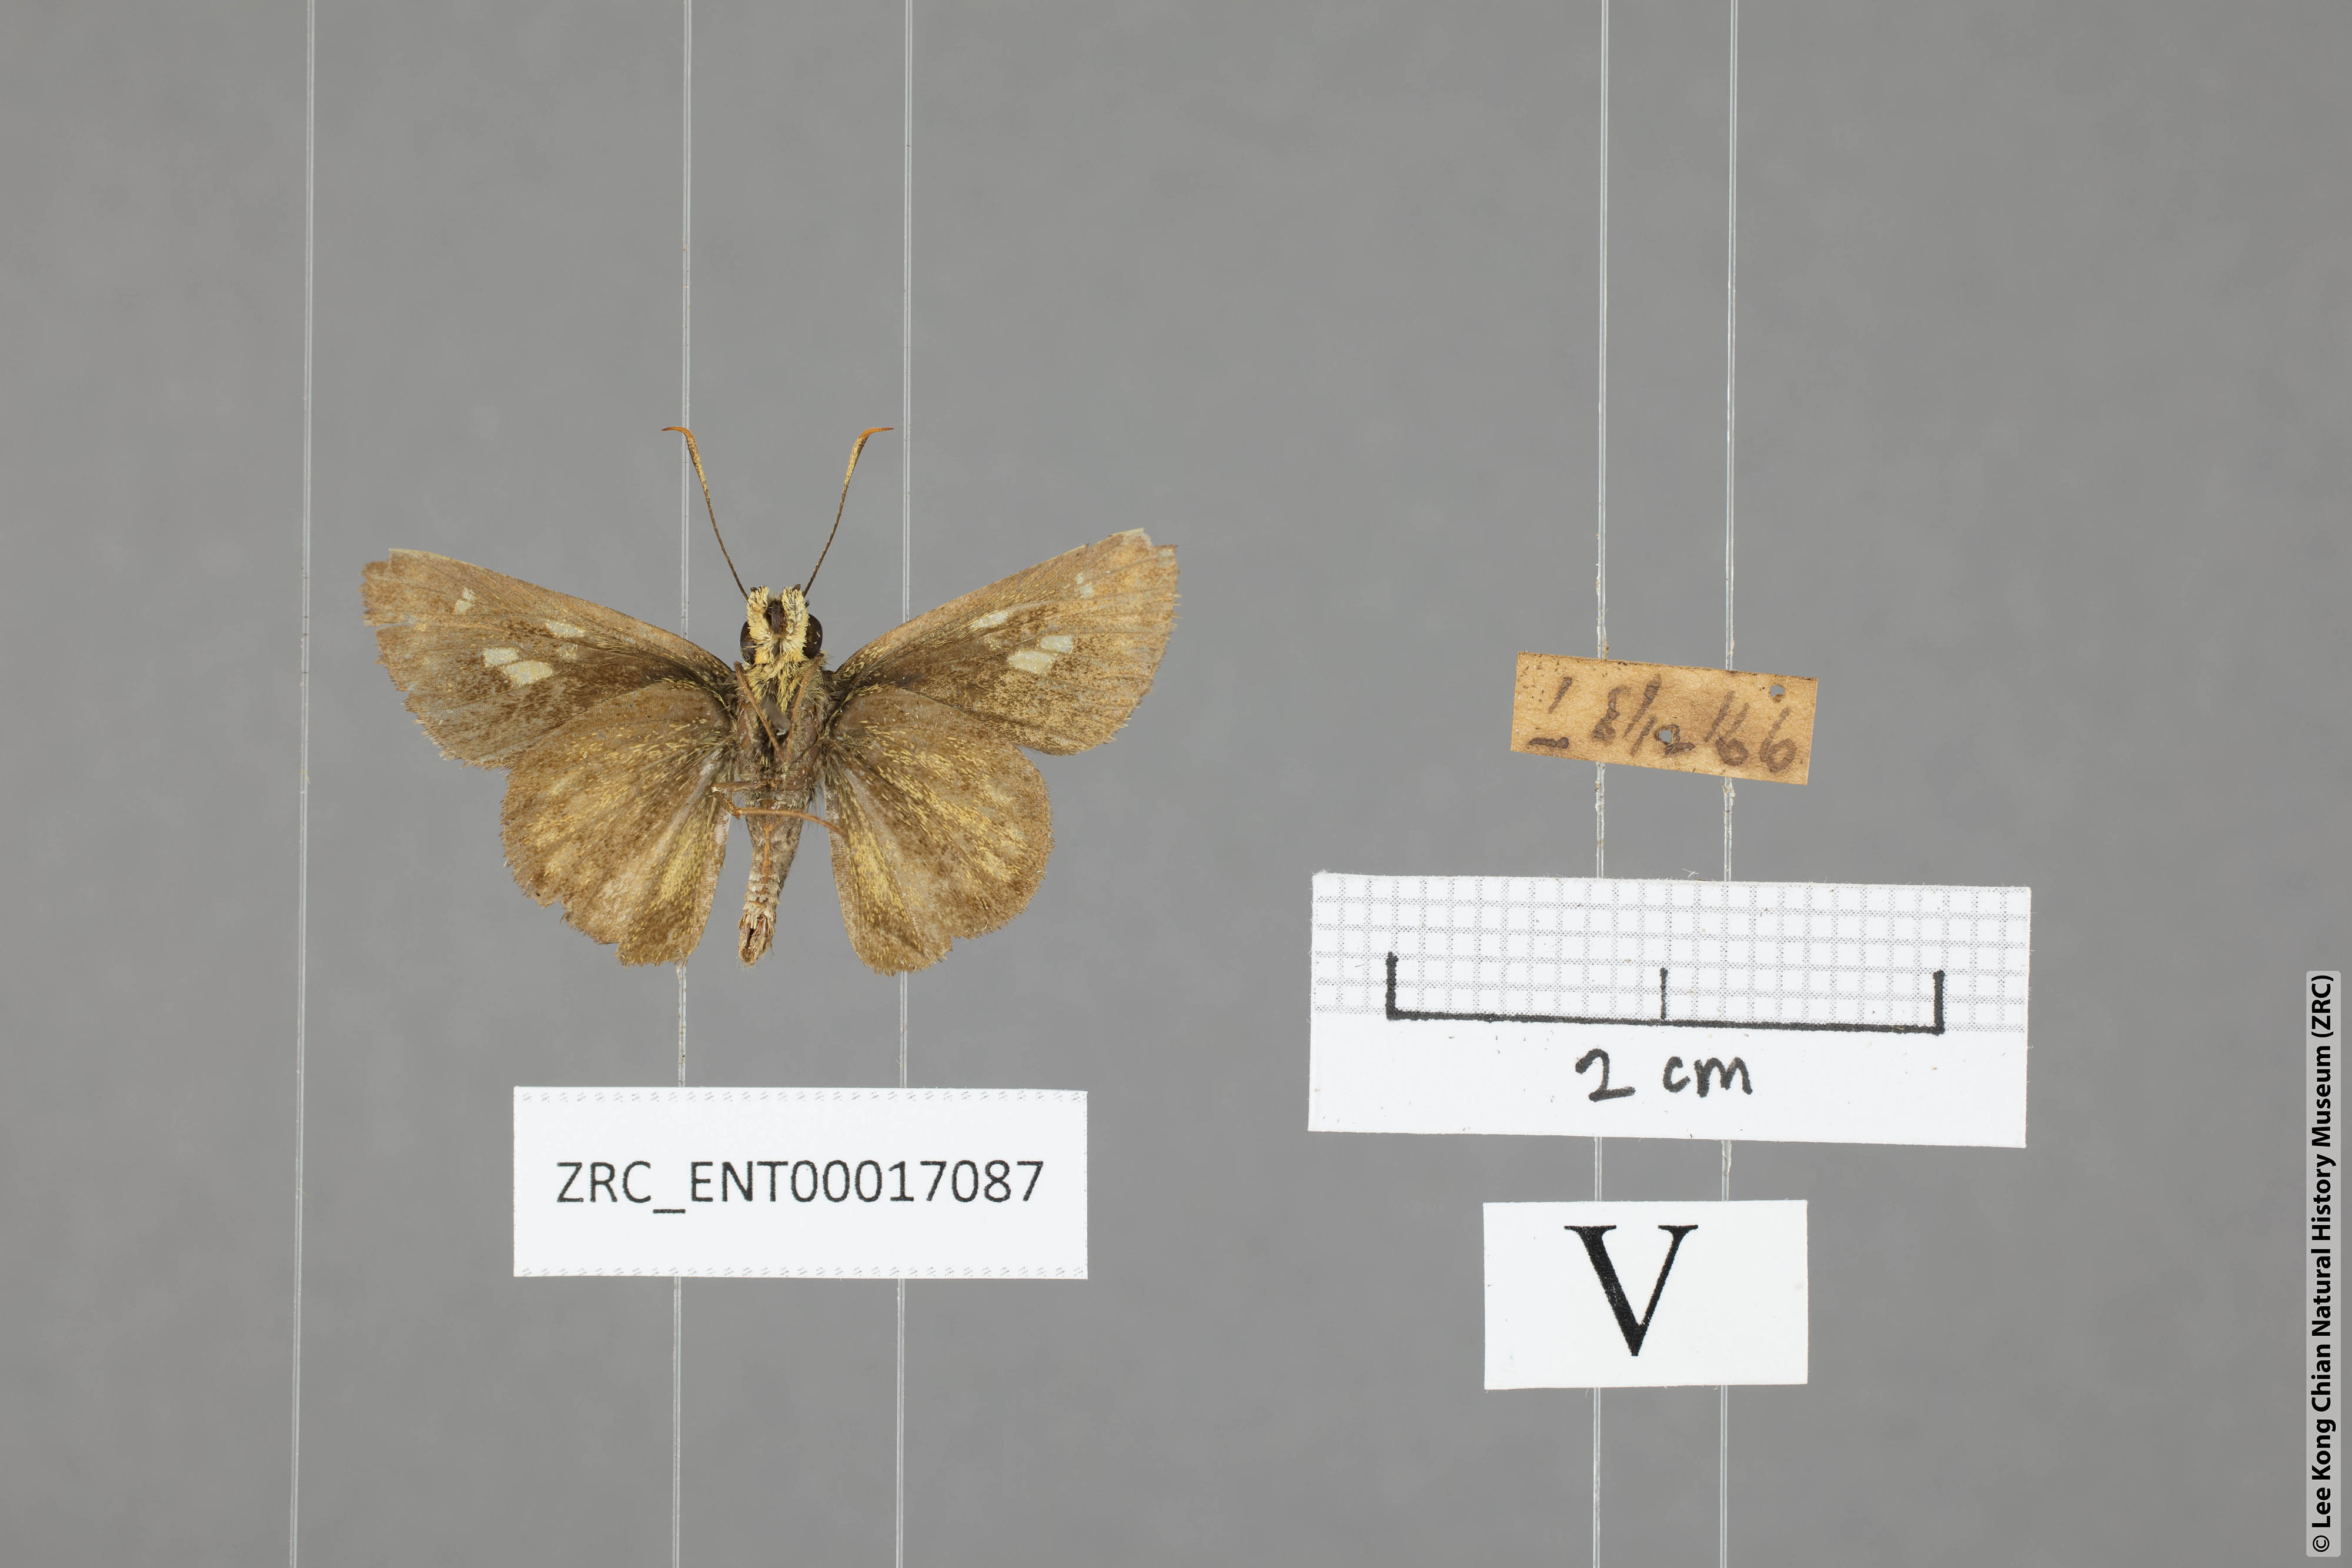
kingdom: Animalia
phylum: Arthropoda
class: Insecta
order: Lepidoptera
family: Hesperiidae
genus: Halpe
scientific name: Halpe veluvana
